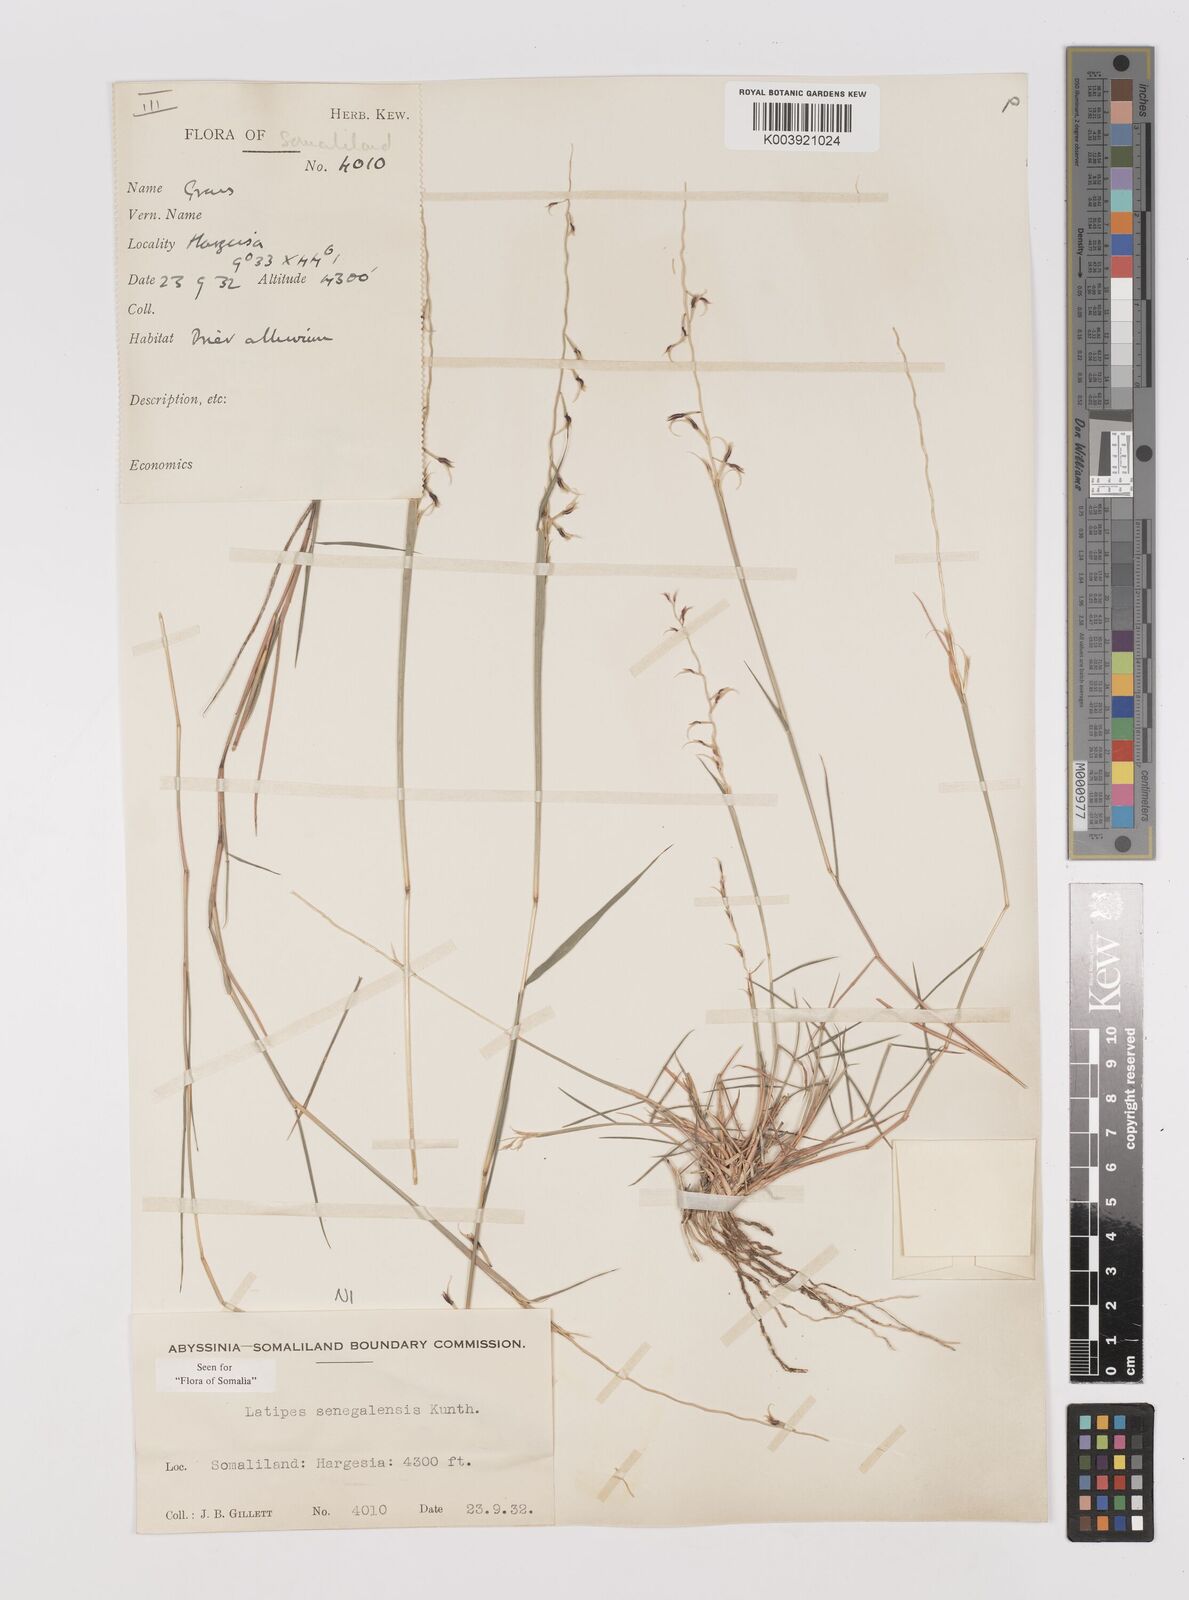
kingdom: Plantae
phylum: Tracheophyta
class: Liliopsida
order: Poales
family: Poaceae
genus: Leptothrium
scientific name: Leptothrium senegalense
